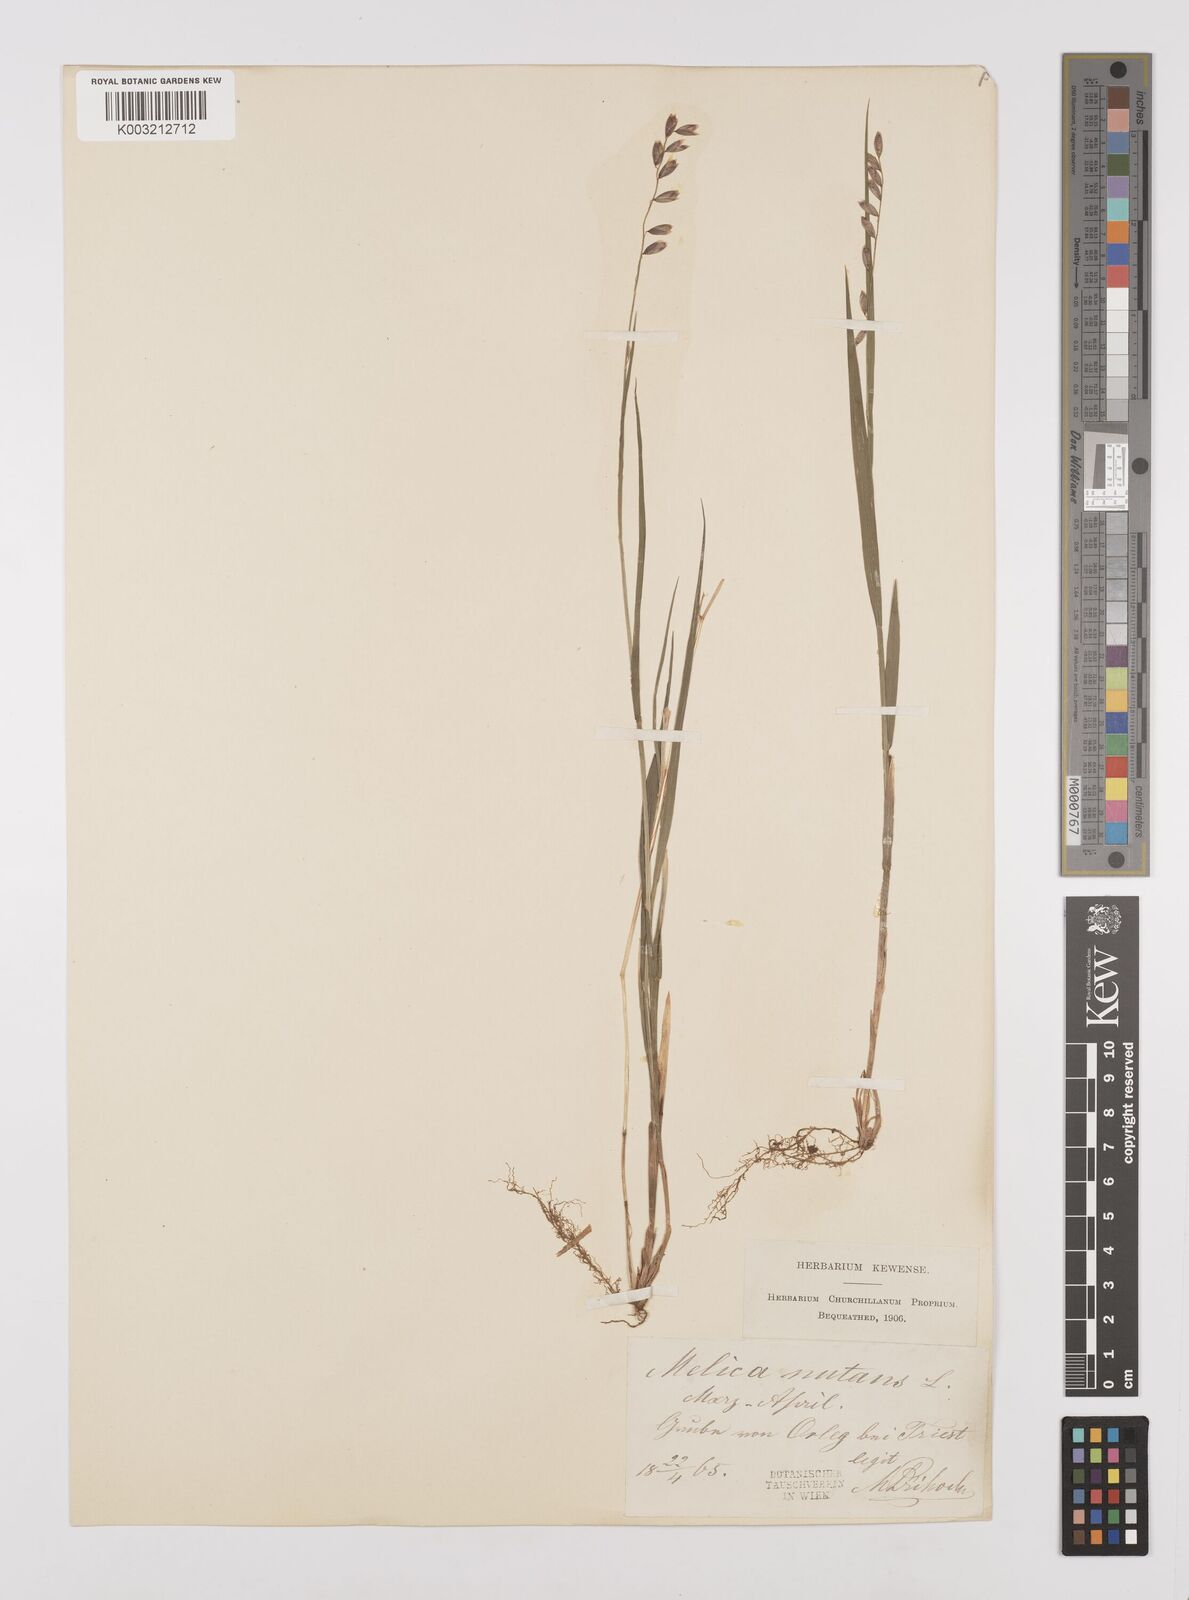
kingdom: Plantae
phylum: Tracheophyta
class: Liliopsida
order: Poales
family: Poaceae
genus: Melica
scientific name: Melica nutans
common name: Mountain melick
